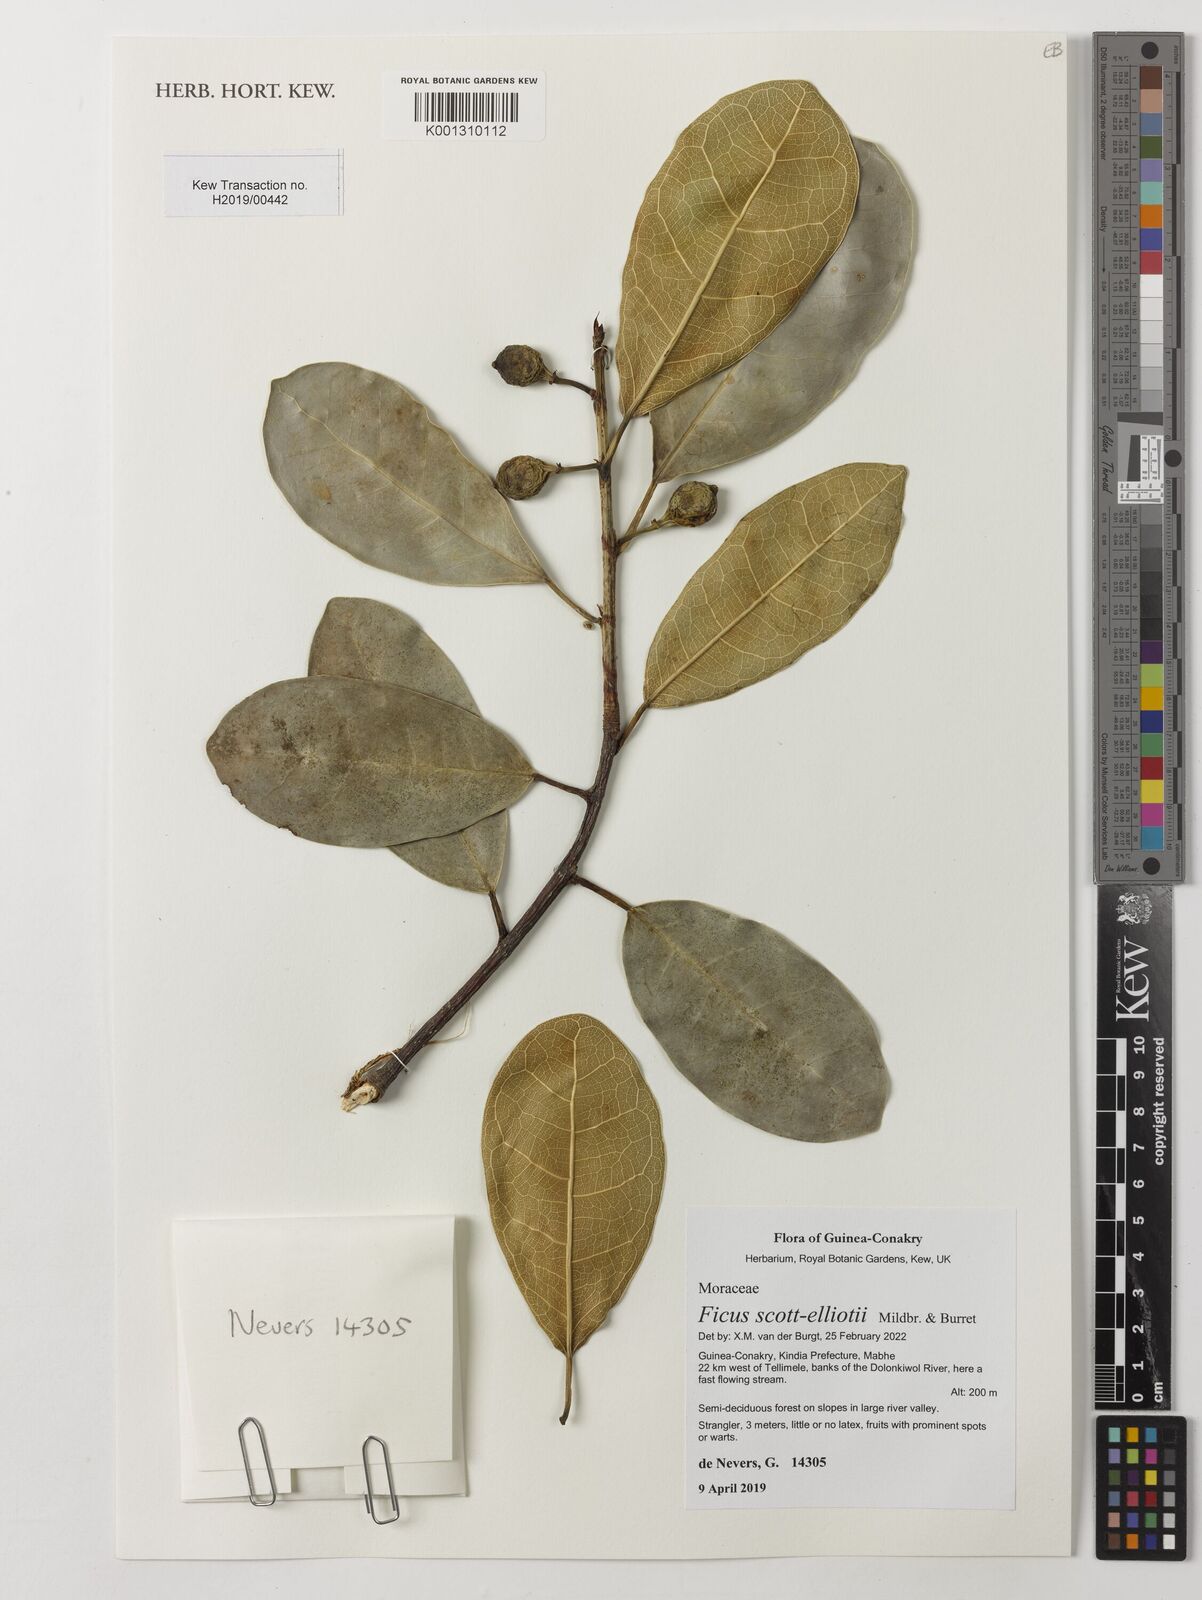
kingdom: Plantae
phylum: Tracheophyta
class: Magnoliopsida
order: Rosales
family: Moraceae
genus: Ficus
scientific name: Ficus scott-elliottii
